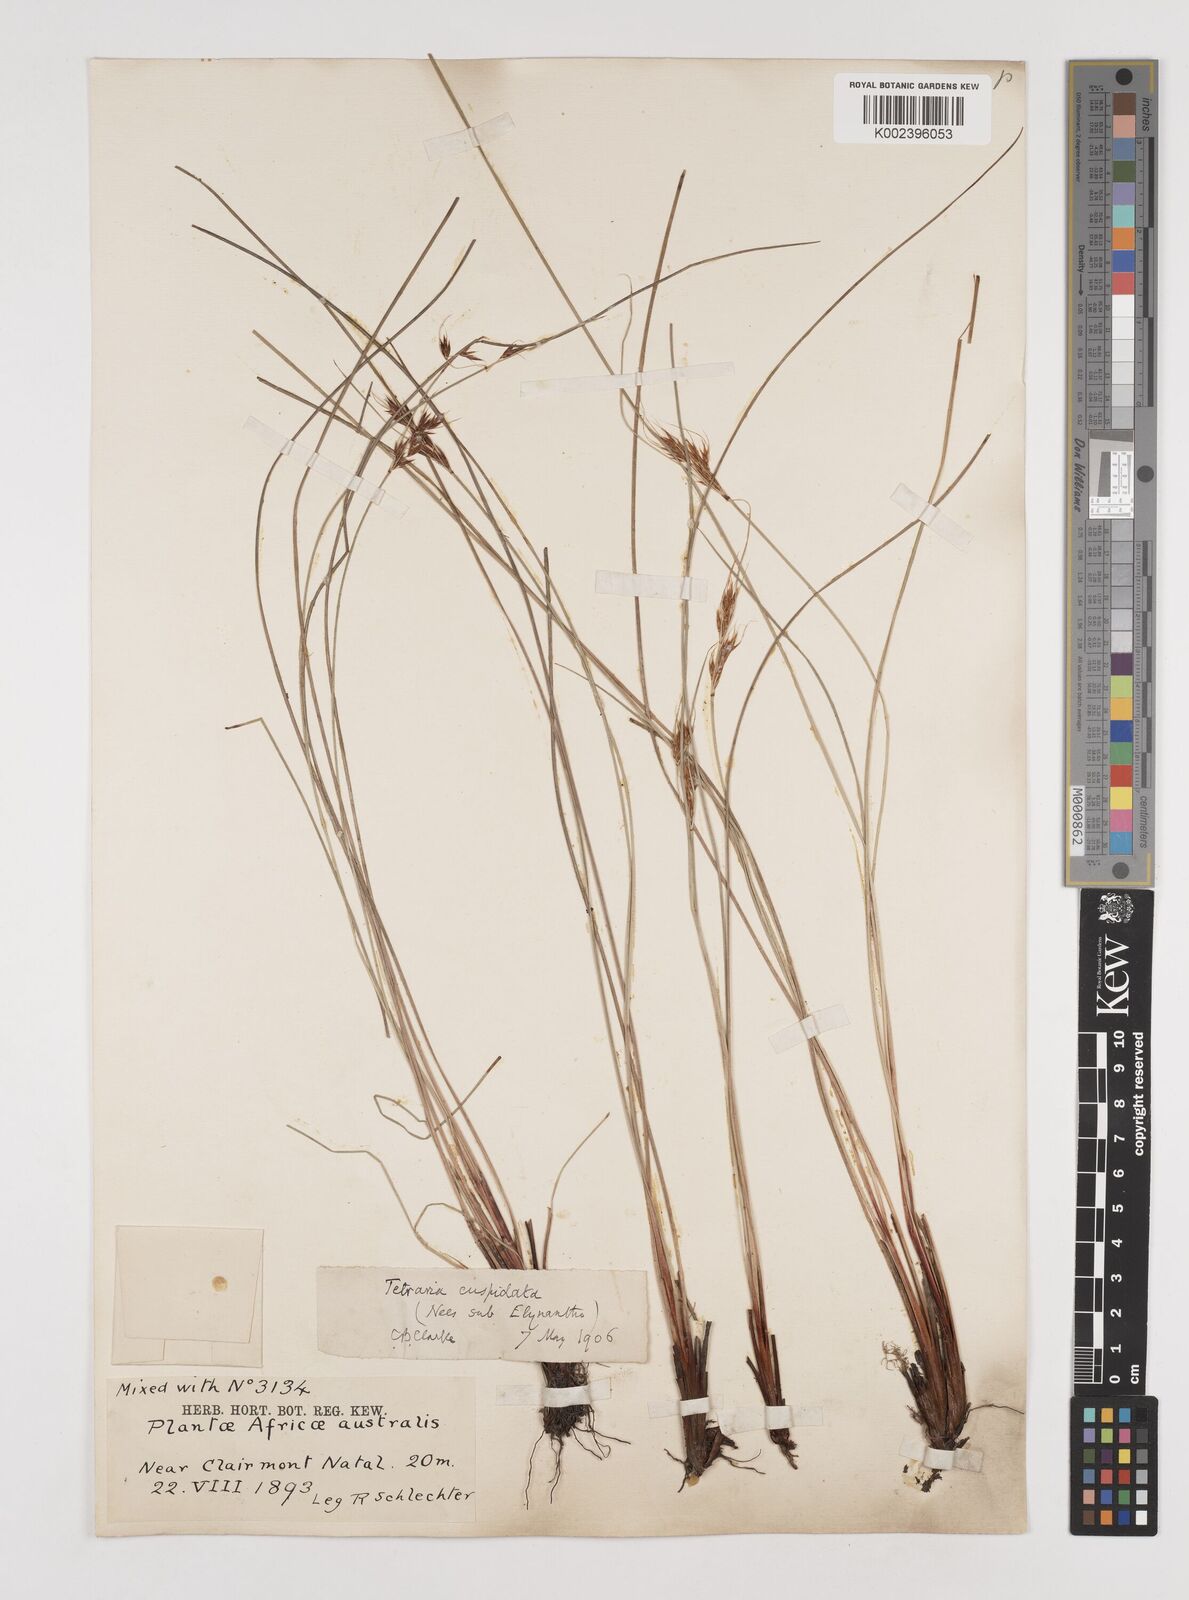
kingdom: Plantae
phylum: Tracheophyta
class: Liliopsida
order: Poales
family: Cyperaceae
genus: Schoenus
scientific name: Schoenus cuspidatus
